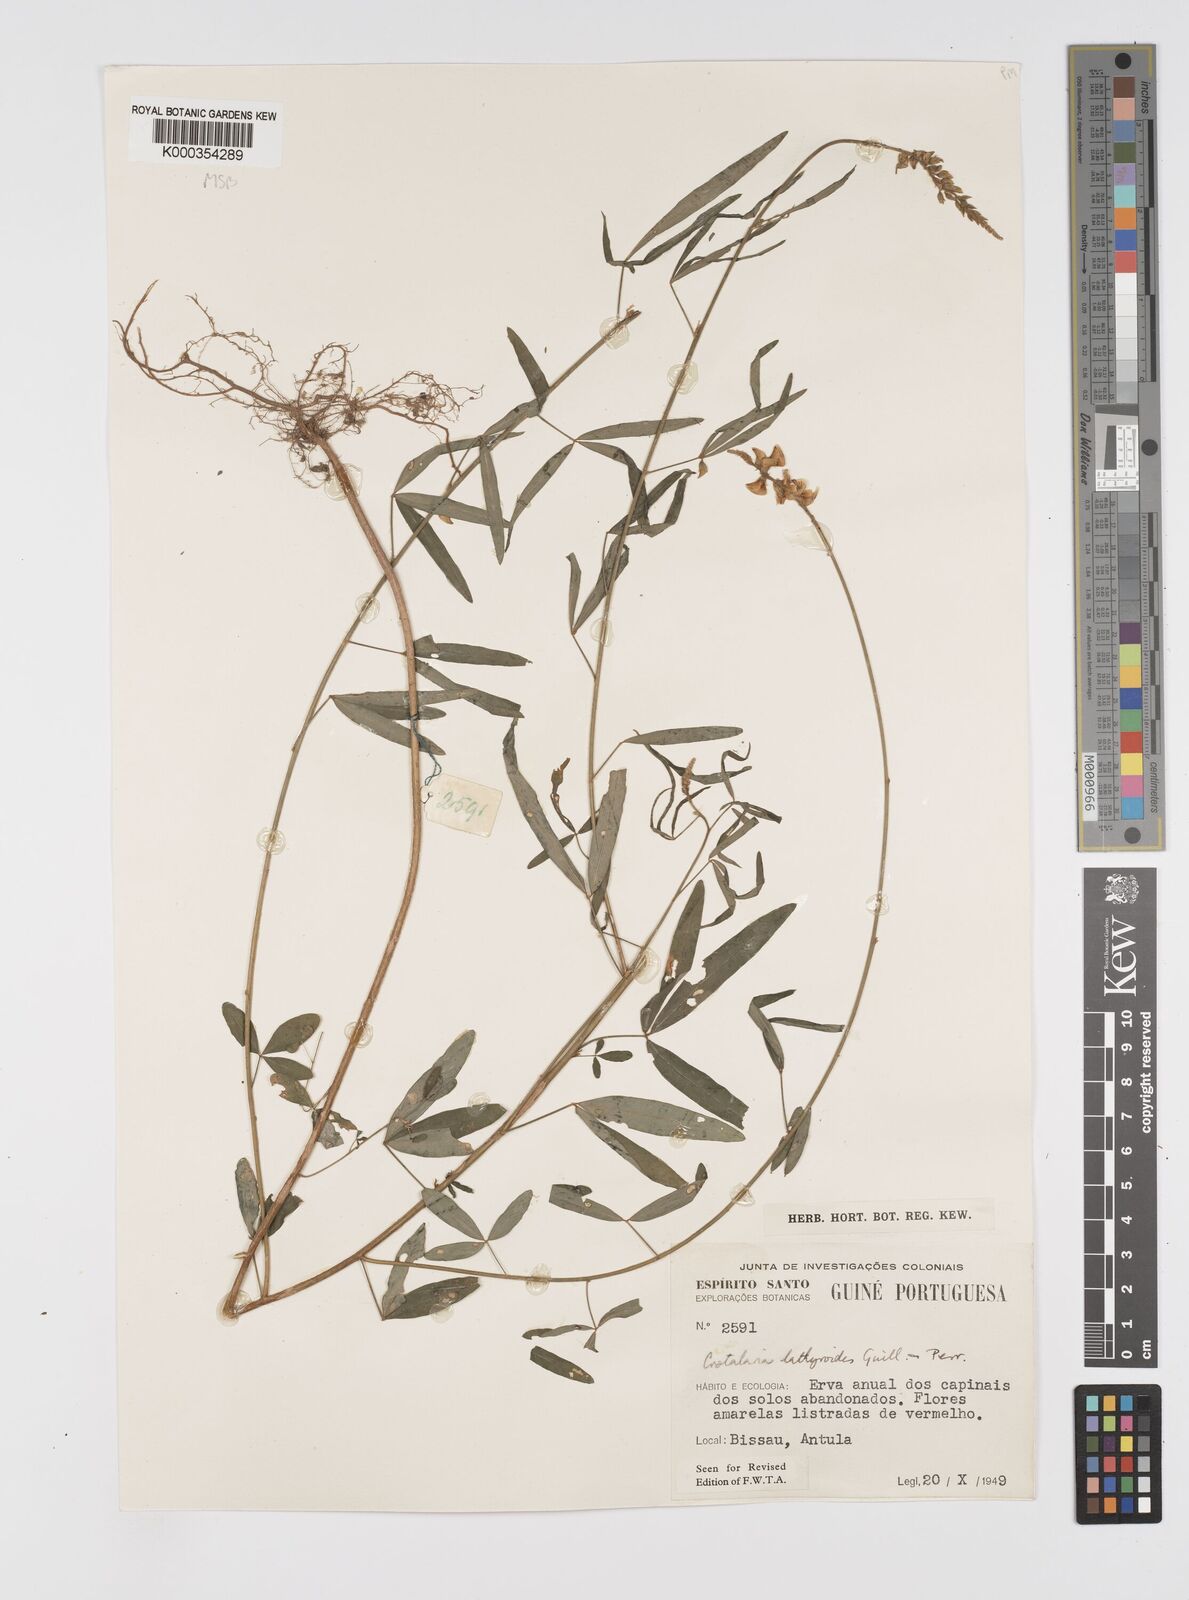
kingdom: Plantae
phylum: Tracheophyta
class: Magnoliopsida
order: Fabales
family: Fabaceae
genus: Crotalaria
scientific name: Crotalaria lathyroides
